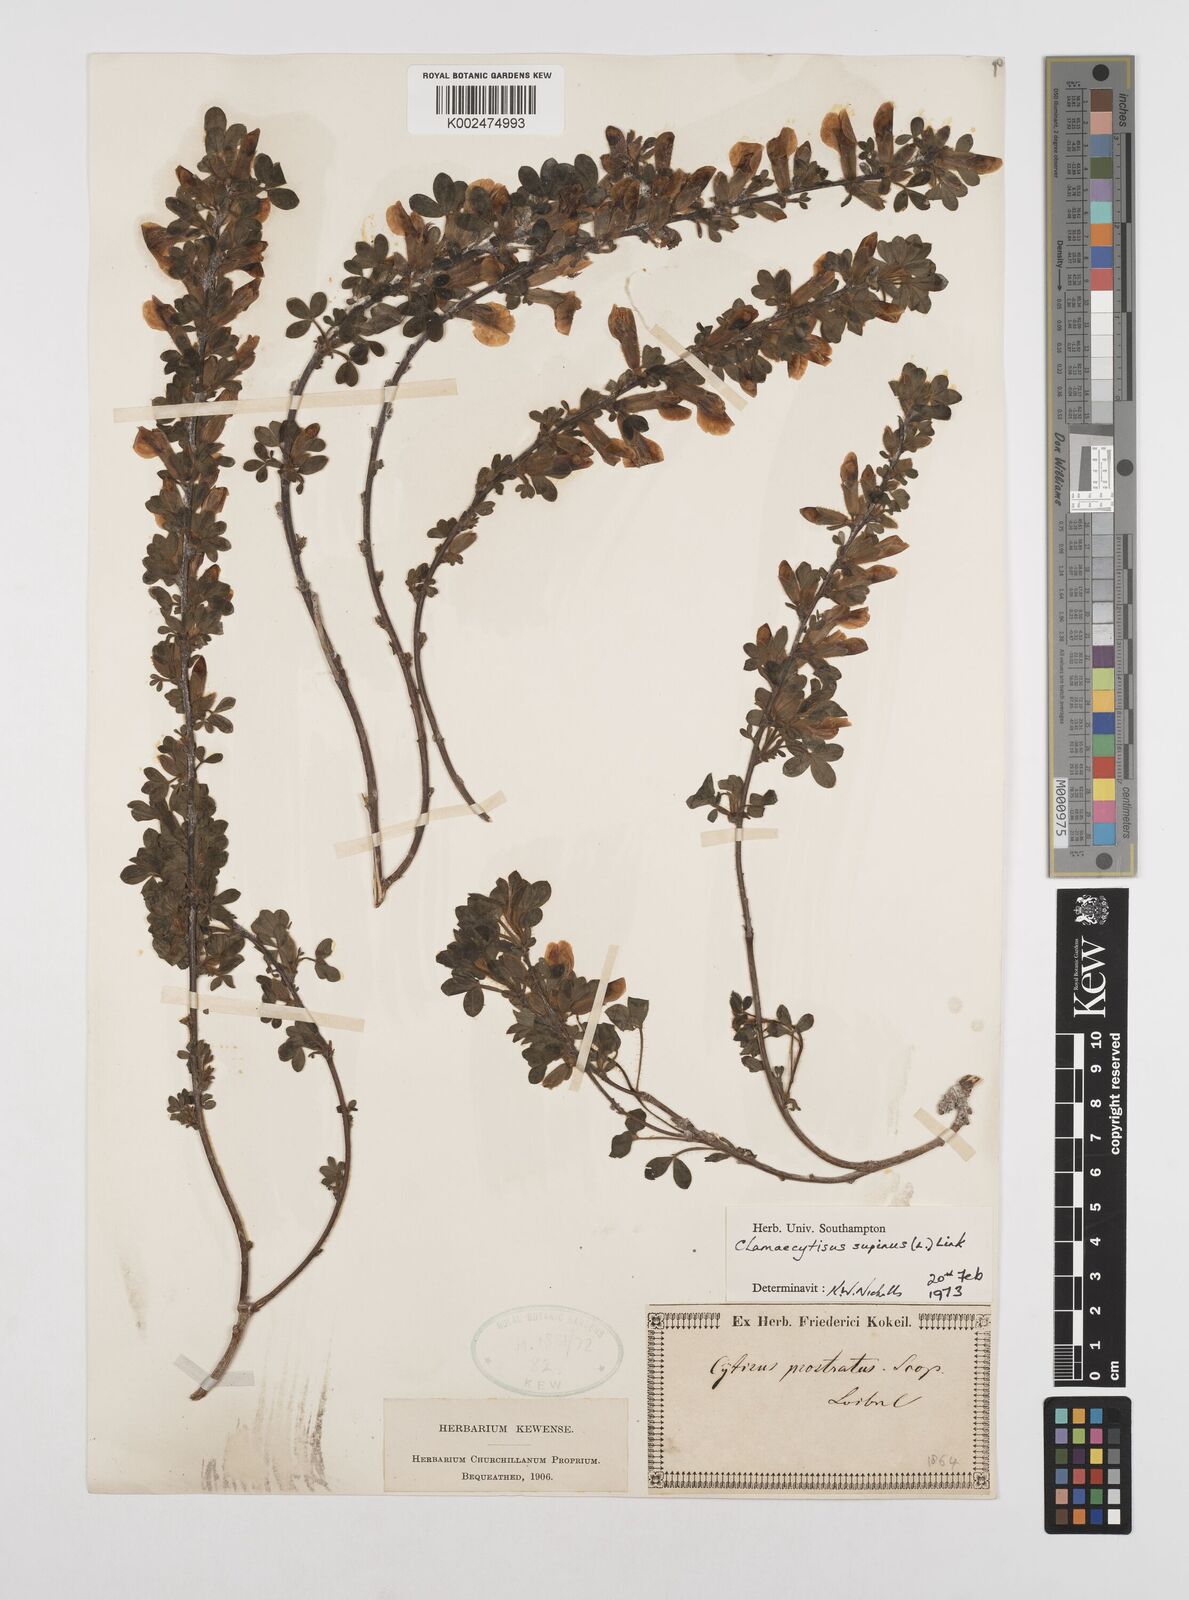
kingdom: Plantae
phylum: Tracheophyta
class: Magnoliopsida
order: Fabales
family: Fabaceae
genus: Chamaecytisus
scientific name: Chamaecytisus hirsutus
